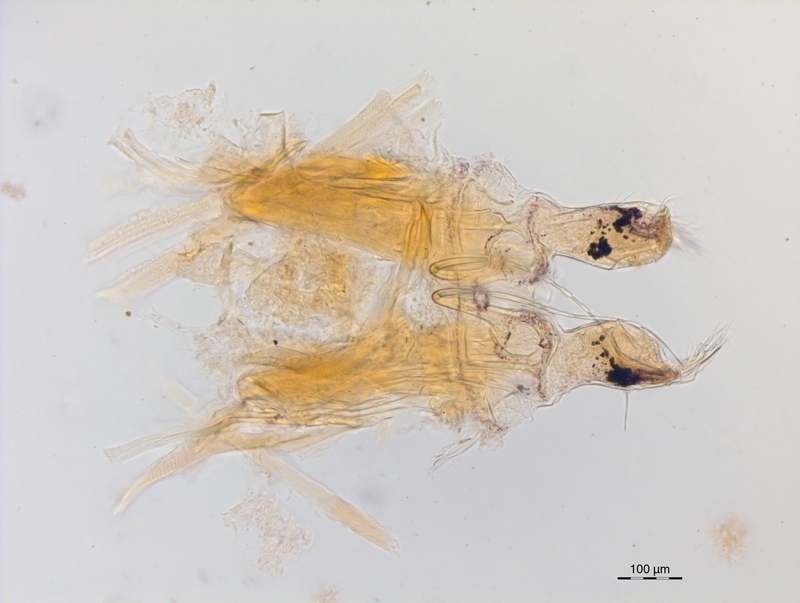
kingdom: Animalia
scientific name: Animalia
